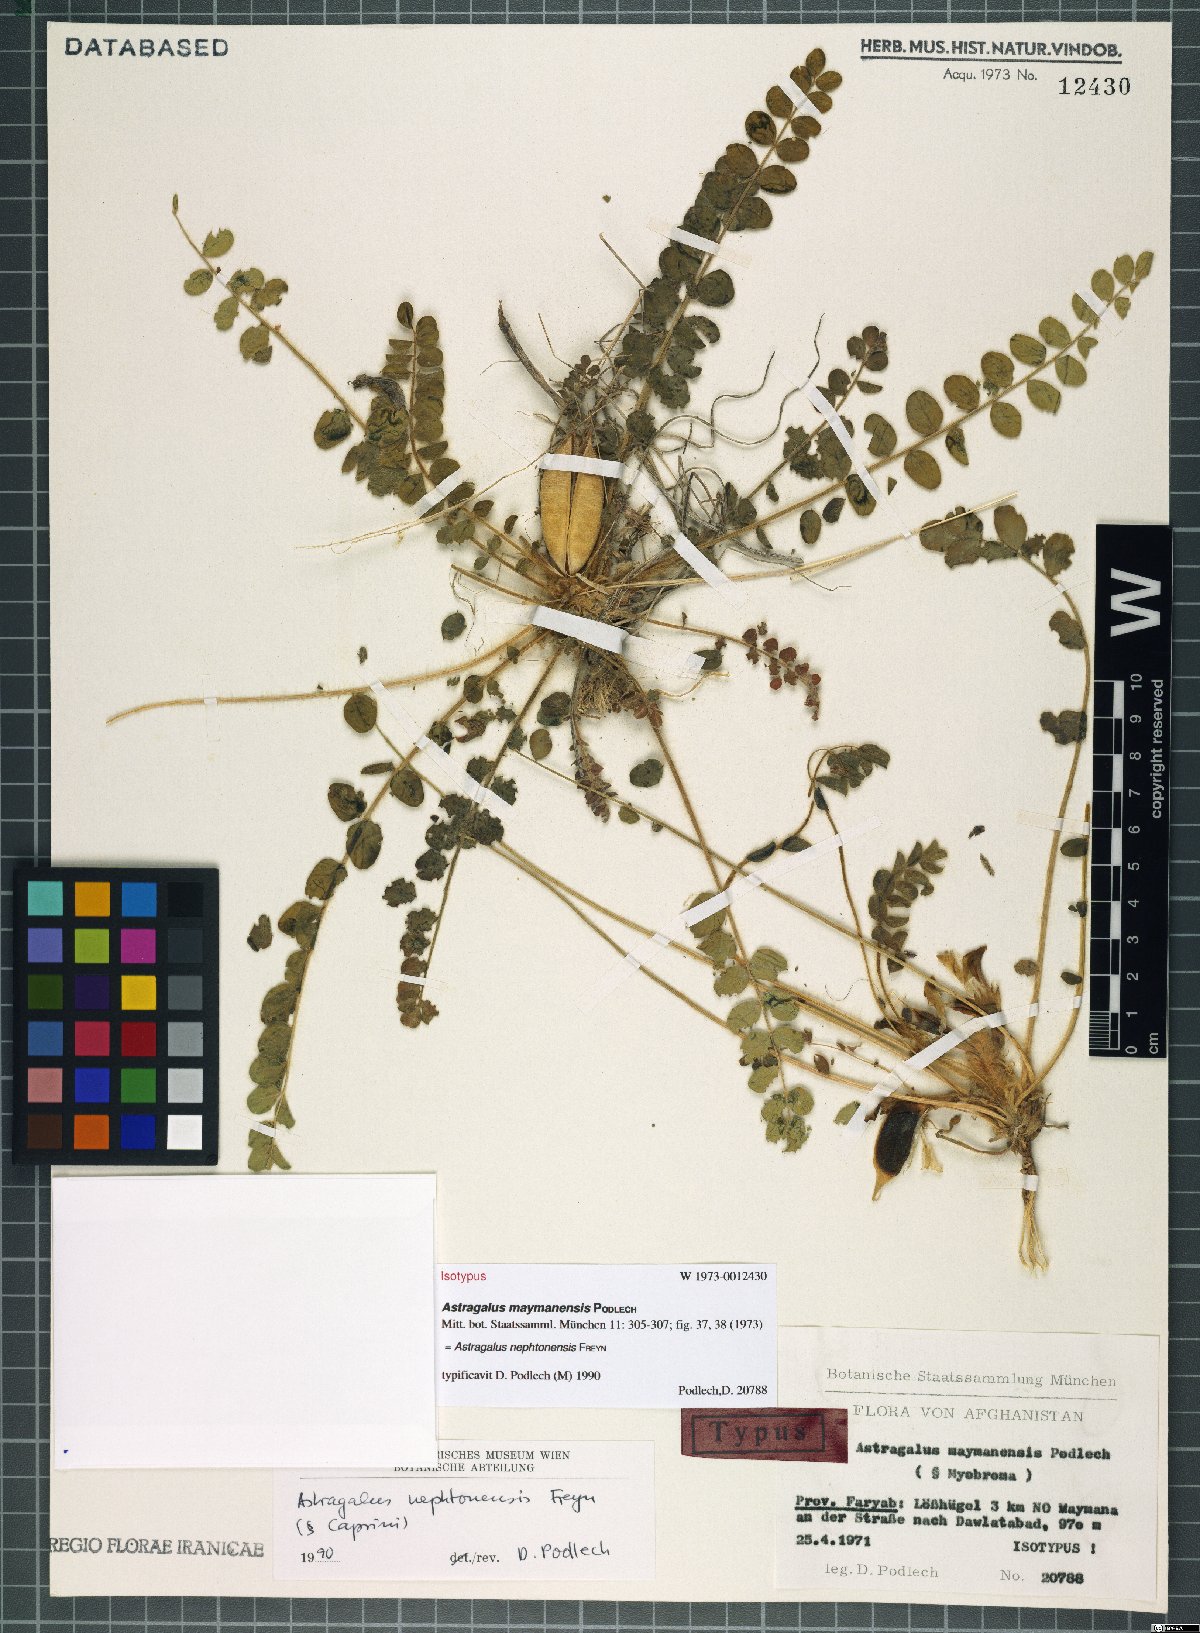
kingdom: Plantae
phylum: Tracheophyta
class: Magnoliopsida
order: Fabales
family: Fabaceae
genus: Astragalus
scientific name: Astragalus nephtonensis
